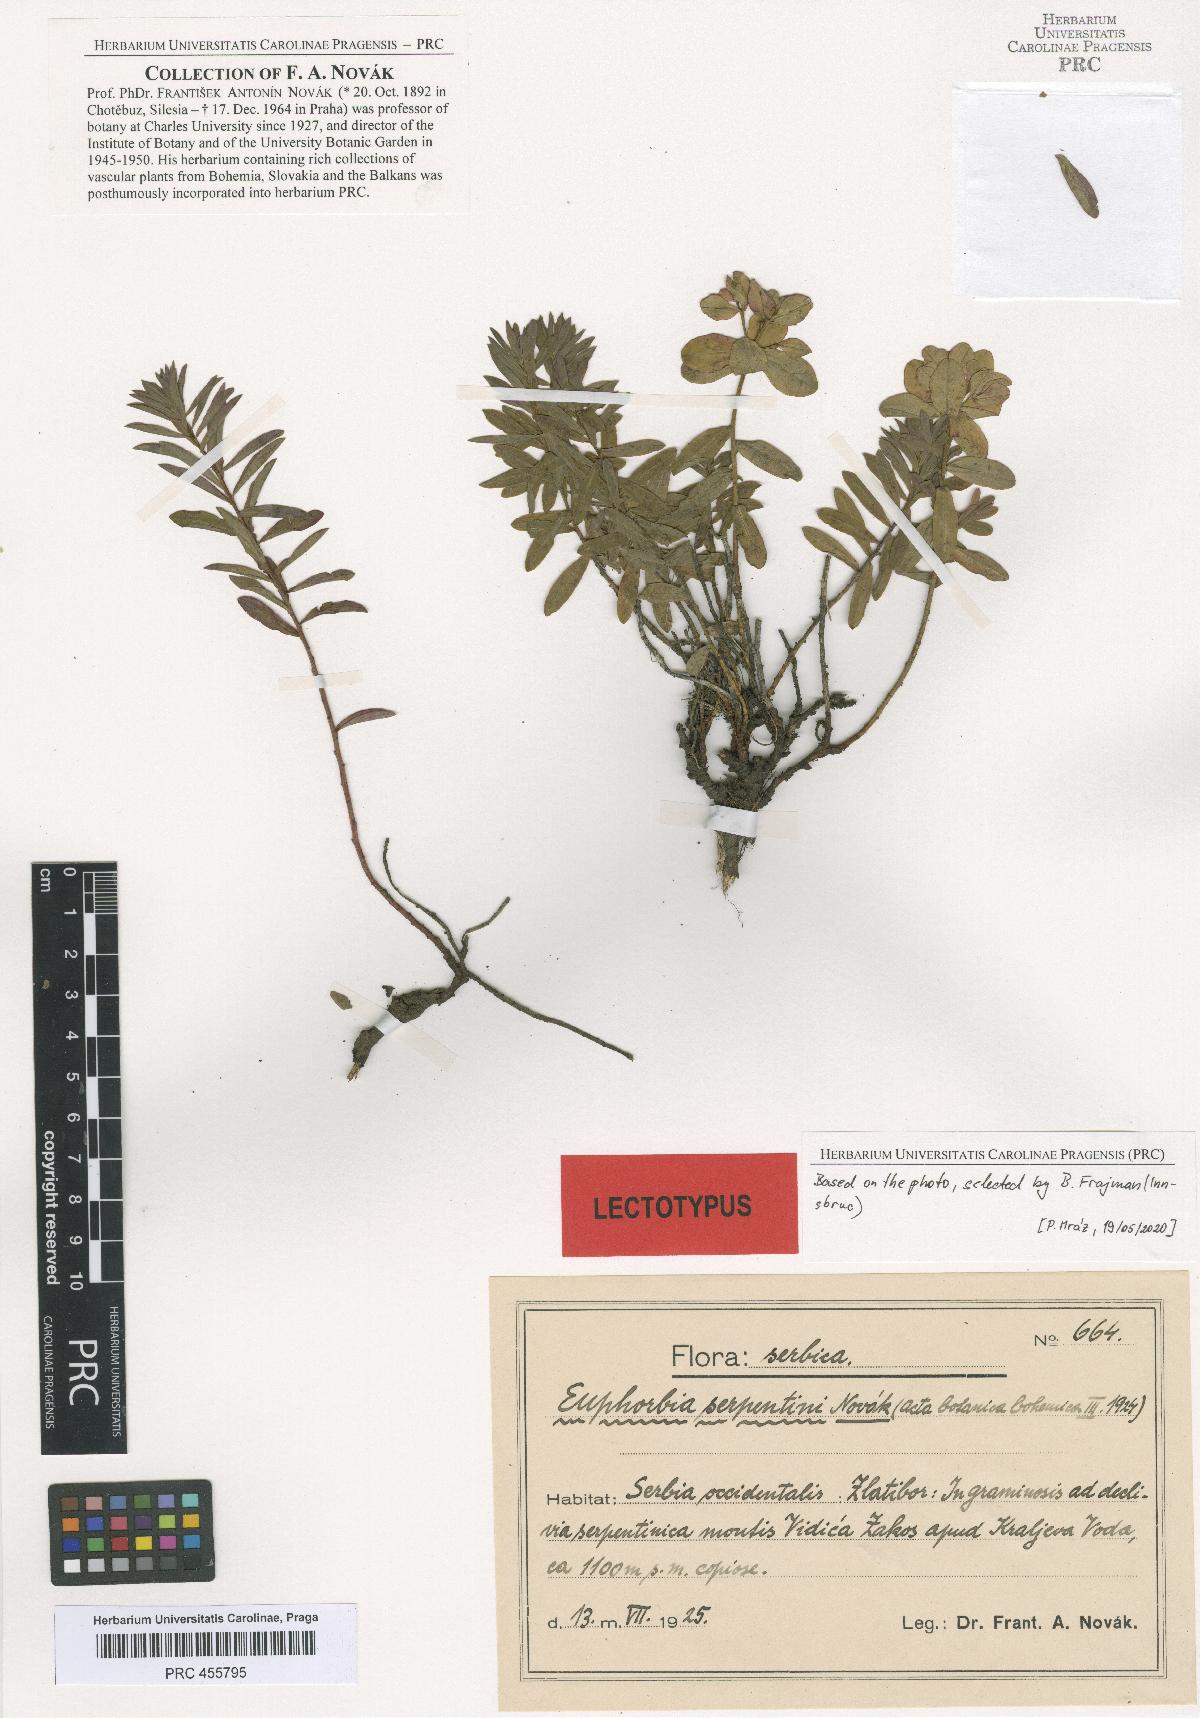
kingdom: Plantae
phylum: Tracheophyta
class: Magnoliopsida
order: Malpighiales
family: Euphorbiaceae
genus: Euphorbia
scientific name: Euphorbia serpentini
